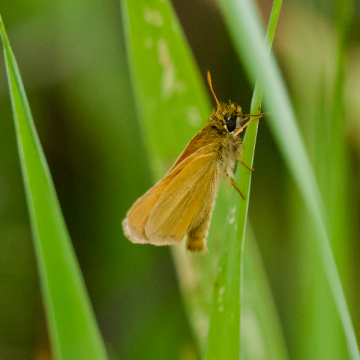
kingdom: Animalia
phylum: Arthropoda
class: Insecta
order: Lepidoptera
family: Hesperiidae
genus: Thymelicus
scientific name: Thymelicus lineola
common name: European Skipper
